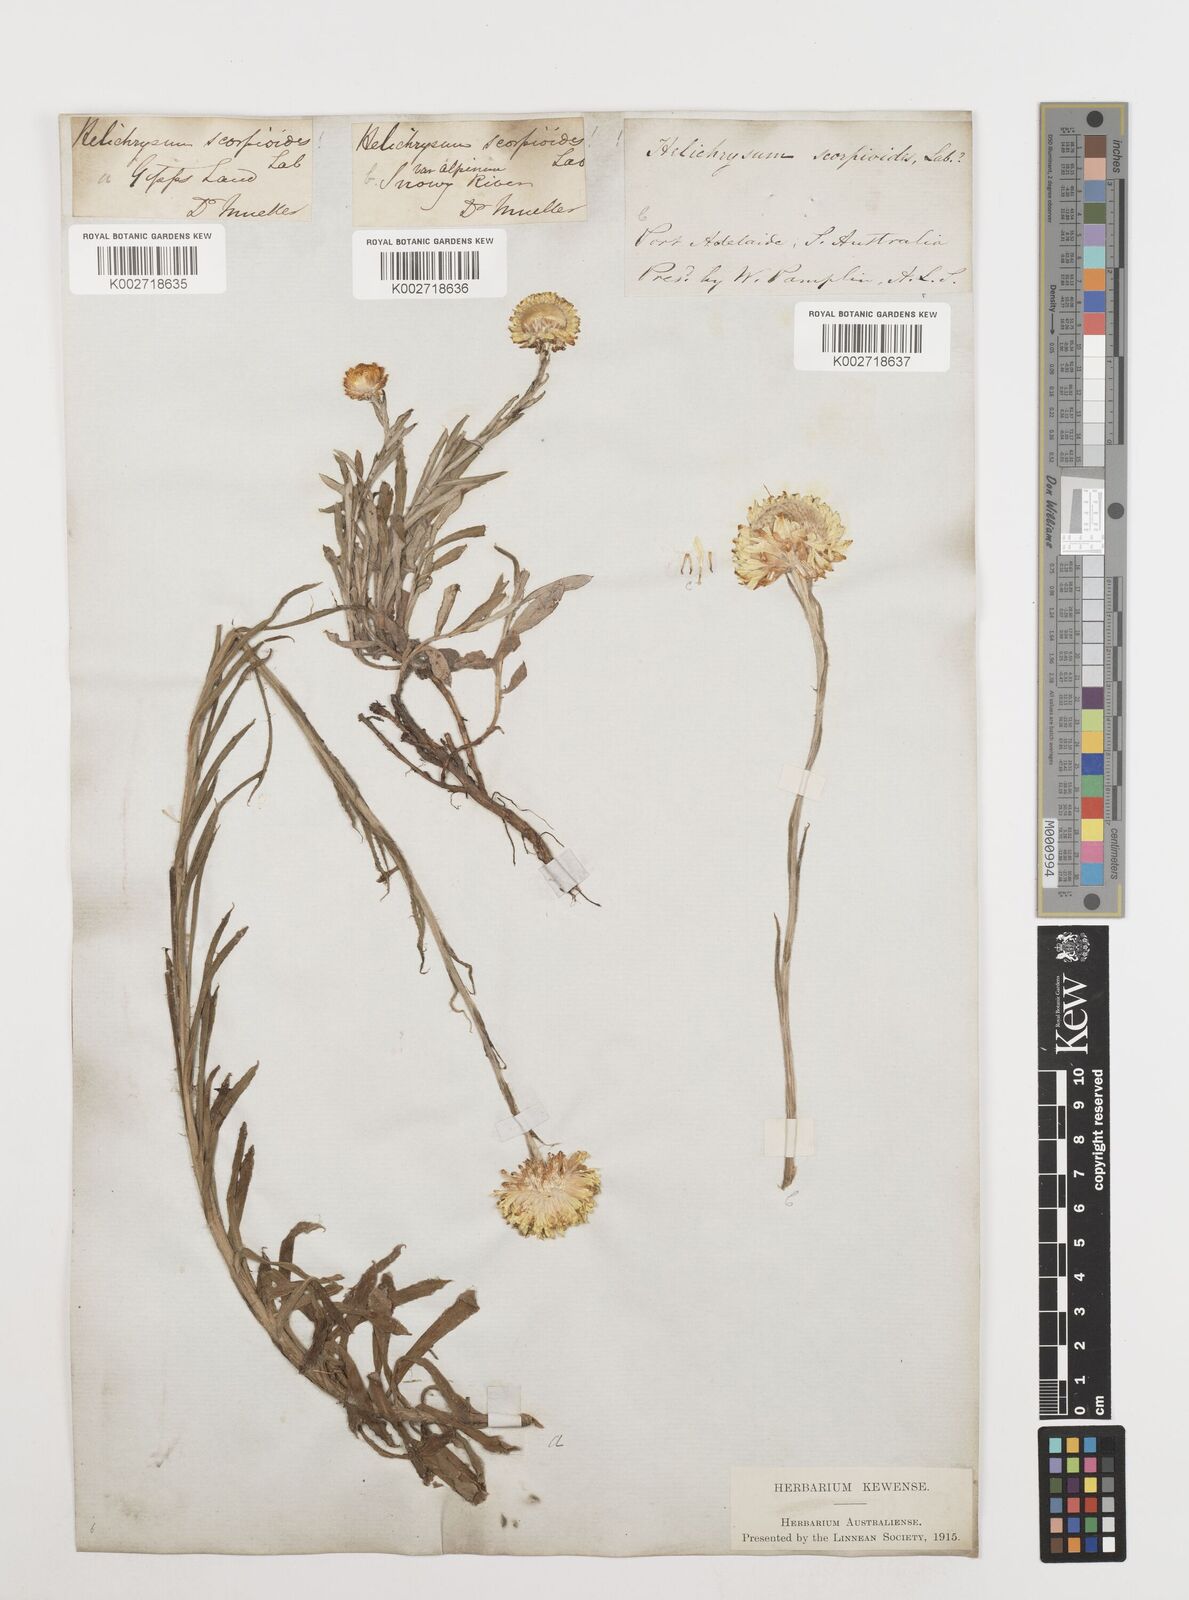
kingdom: Plantae
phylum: Tracheophyta
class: Magnoliopsida
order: Asterales
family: Asteraceae
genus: Coronidium
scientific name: Coronidium scorpioides
